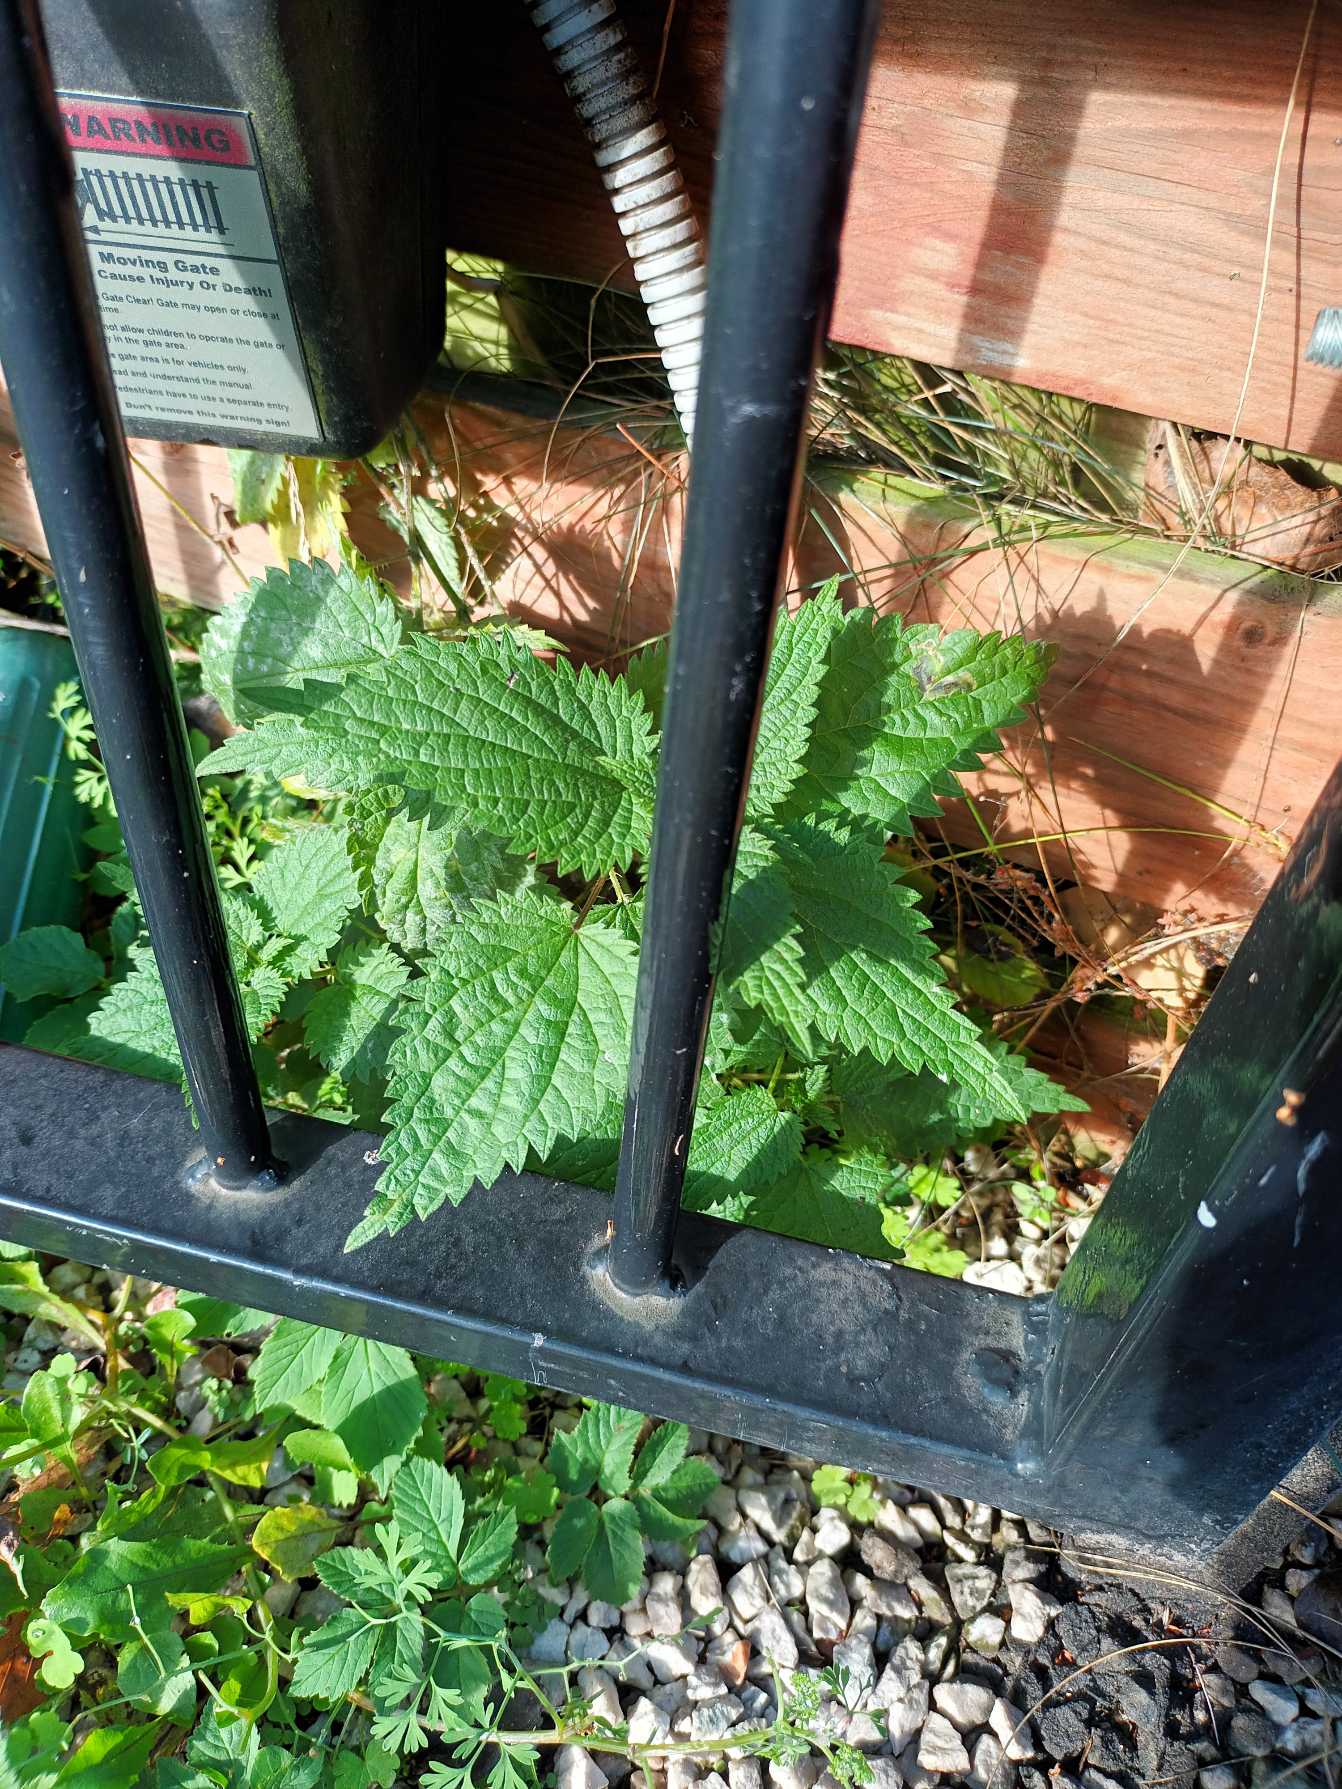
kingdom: Plantae
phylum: Tracheophyta
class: Magnoliopsida
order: Rosales
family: Urticaceae
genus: Urtica
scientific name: Urtica dioica
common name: Stor nælde
